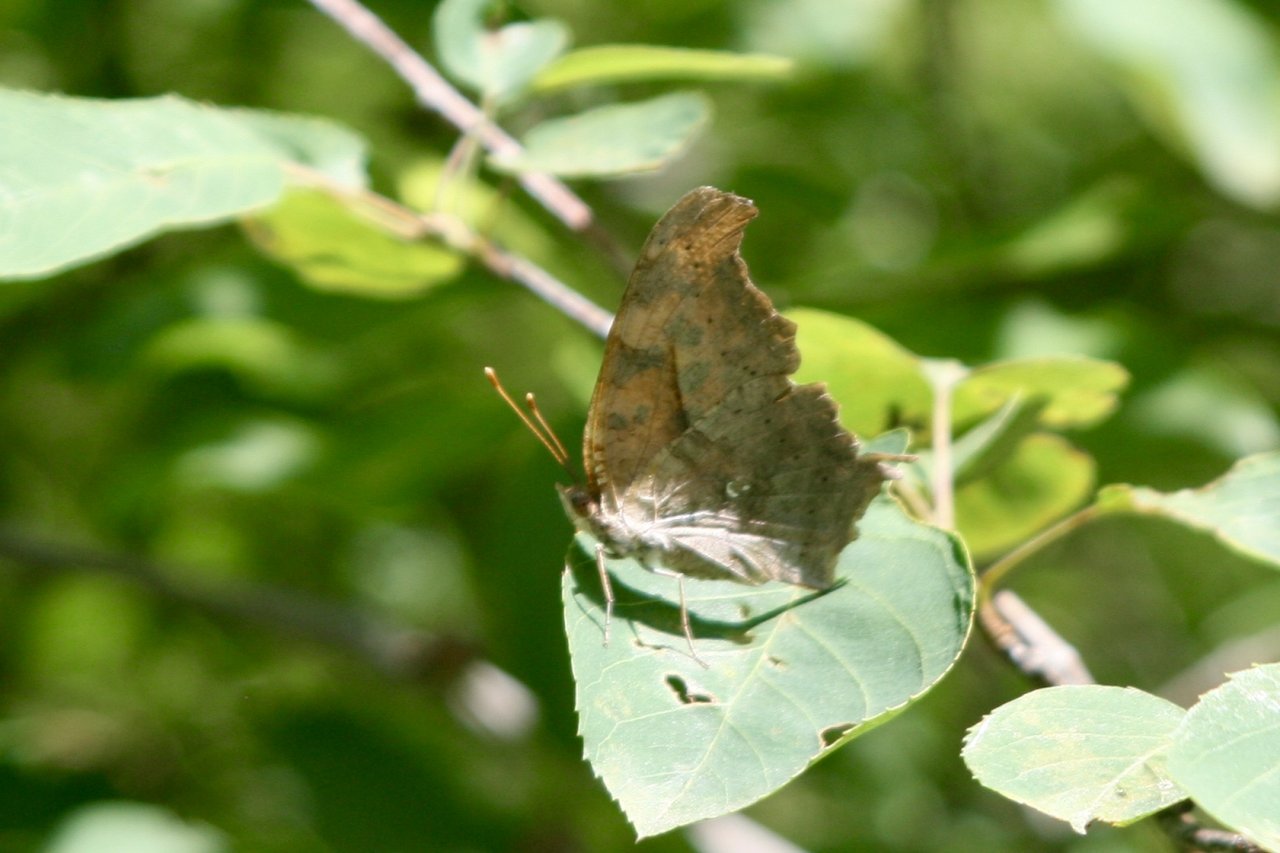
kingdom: Animalia
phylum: Arthropoda
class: Insecta
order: Lepidoptera
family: Nymphalidae
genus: Polygonia
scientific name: Polygonia interrogationis
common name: Question Mark
